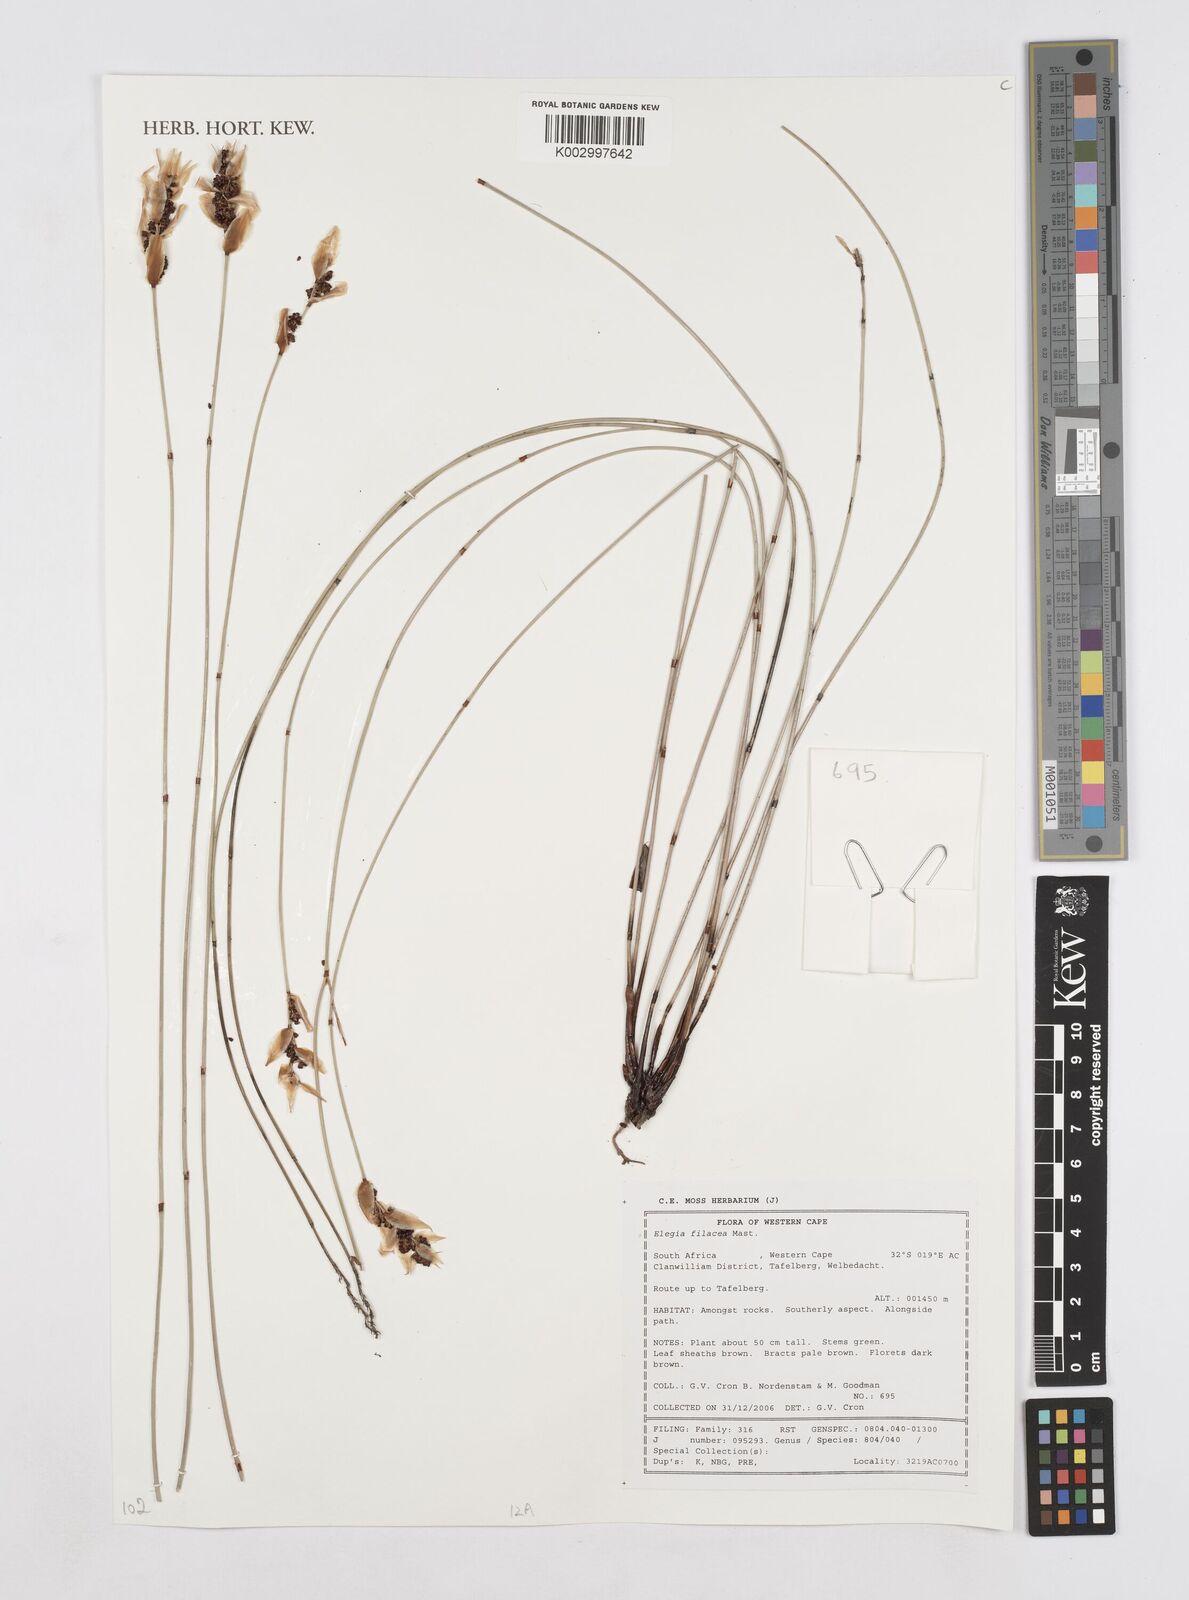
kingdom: Plantae
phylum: Tracheophyta
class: Liliopsida
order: Poales
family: Restionaceae
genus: Cannomois
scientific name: Cannomois parviflora
